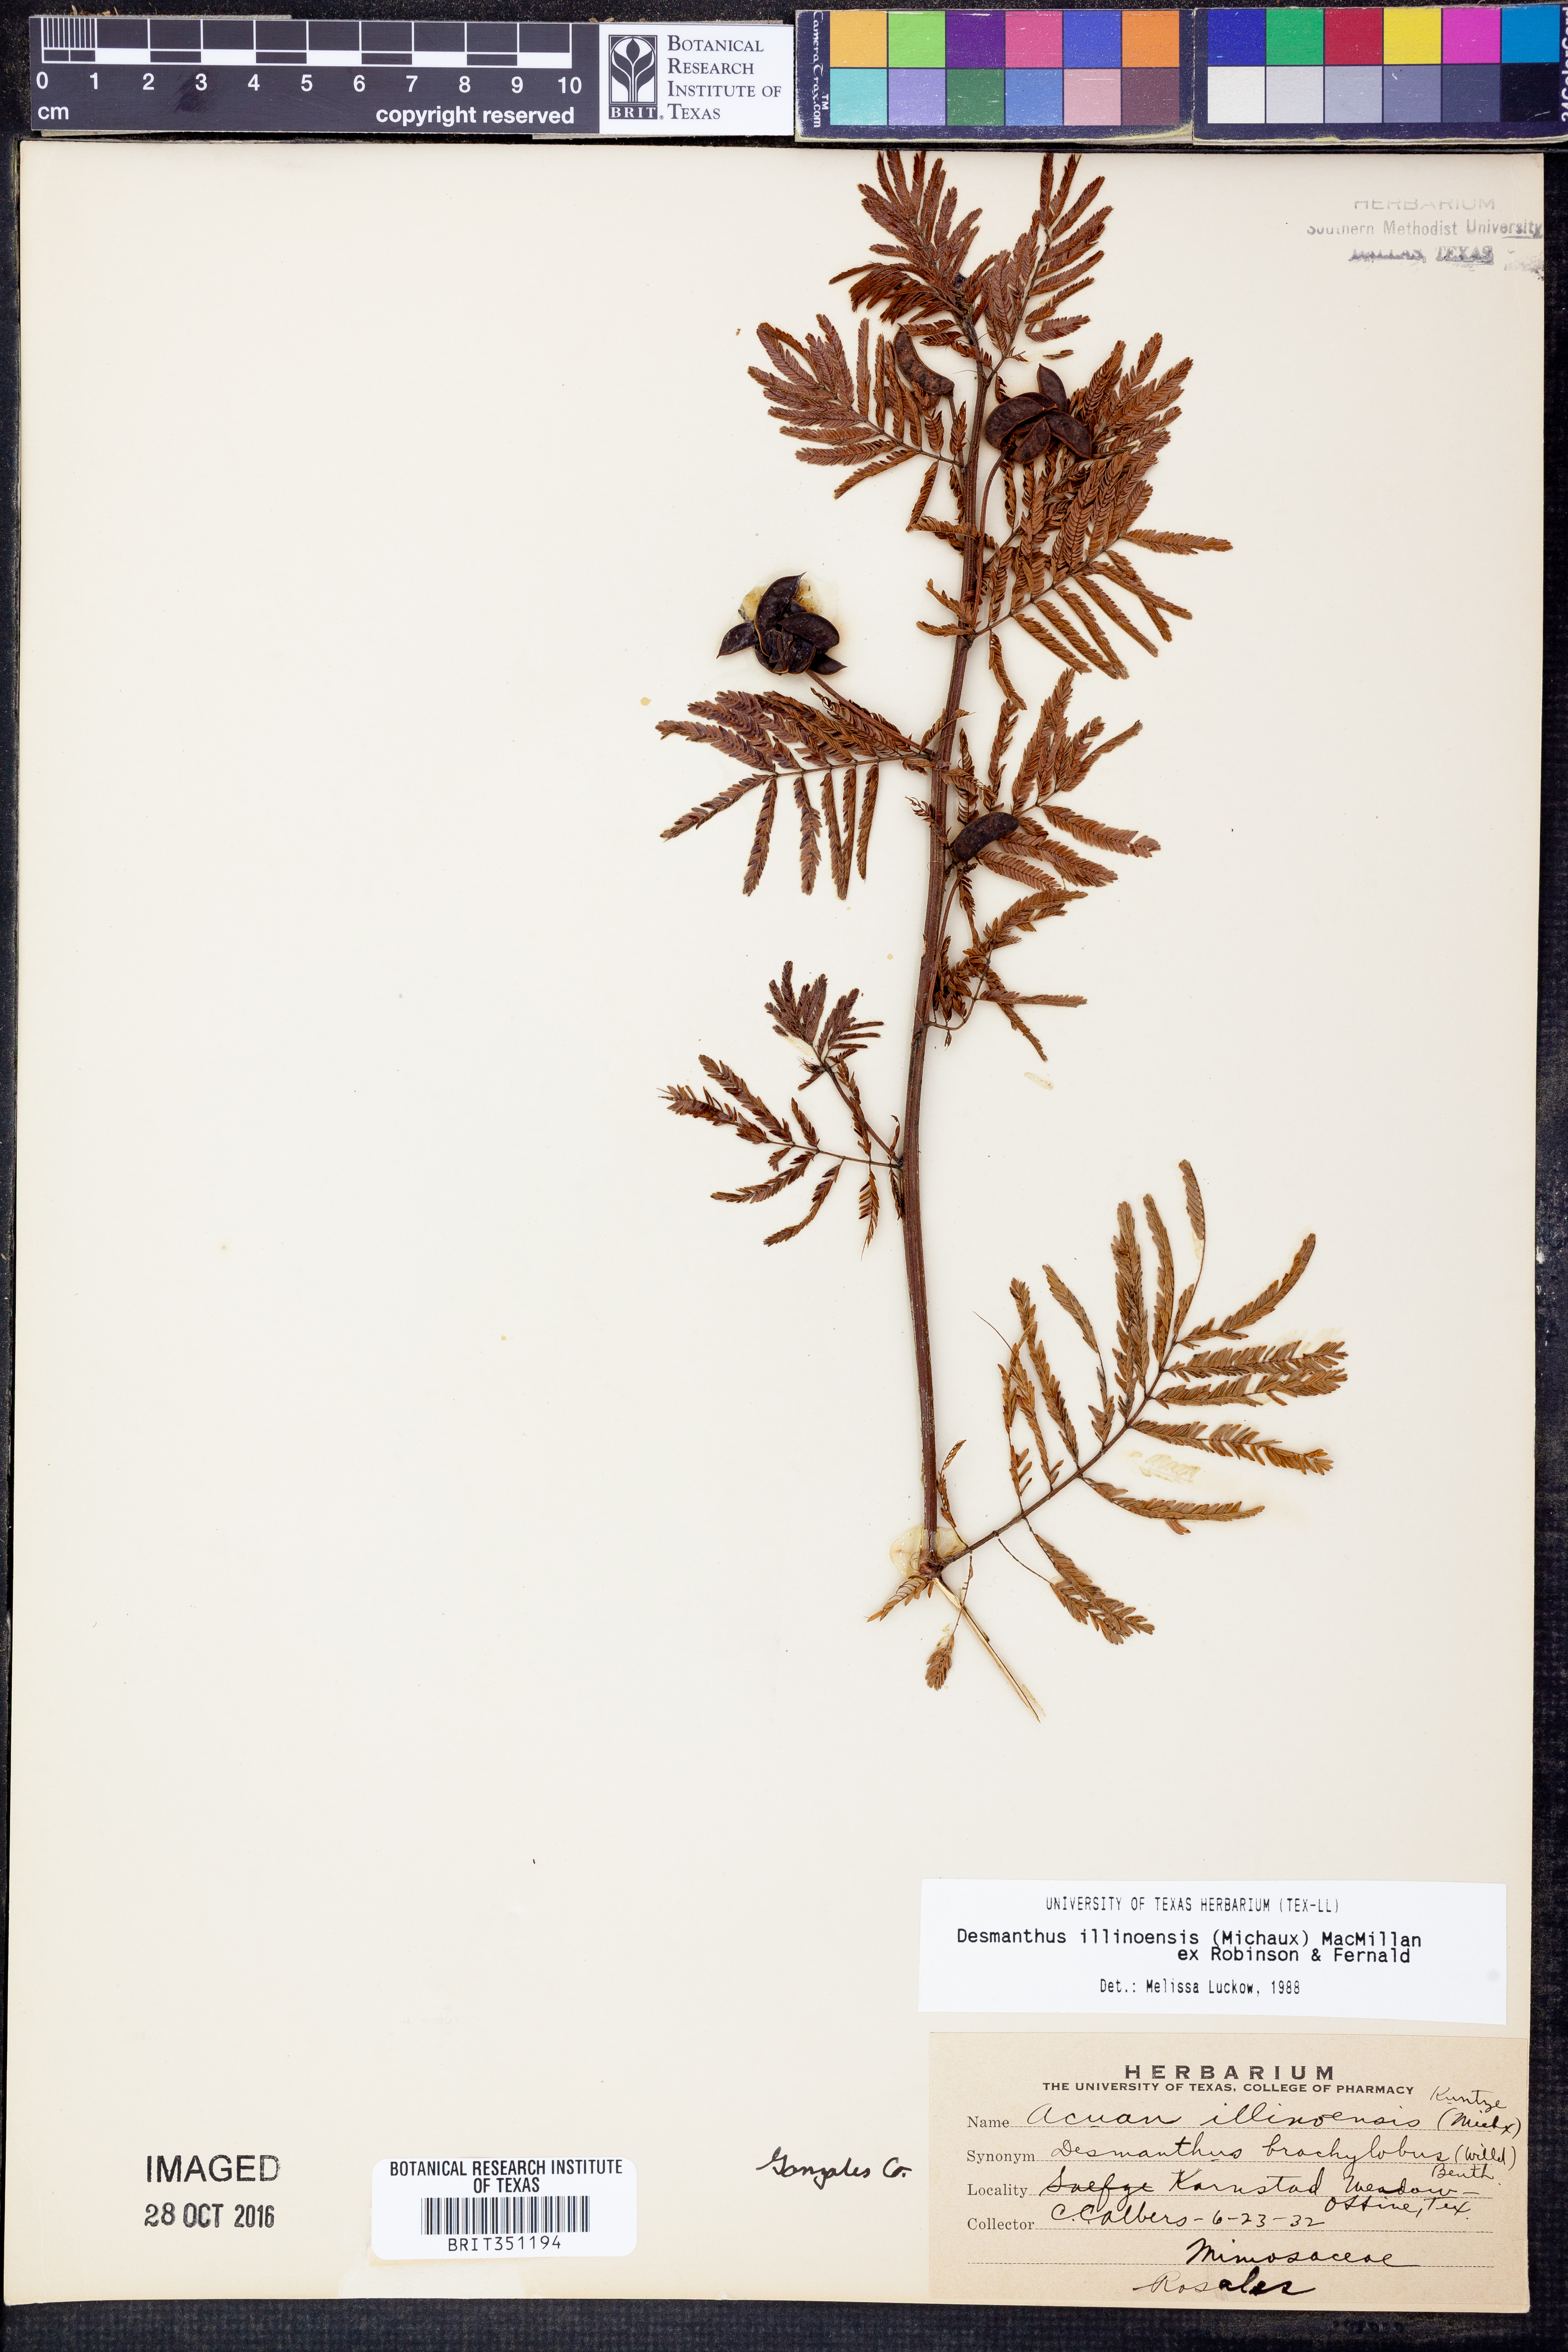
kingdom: Plantae
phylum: Tracheophyta
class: Magnoliopsida
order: Fabales
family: Fabaceae
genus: Desmanthus
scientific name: Desmanthus illinoensis
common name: Illinois bundle-flower
